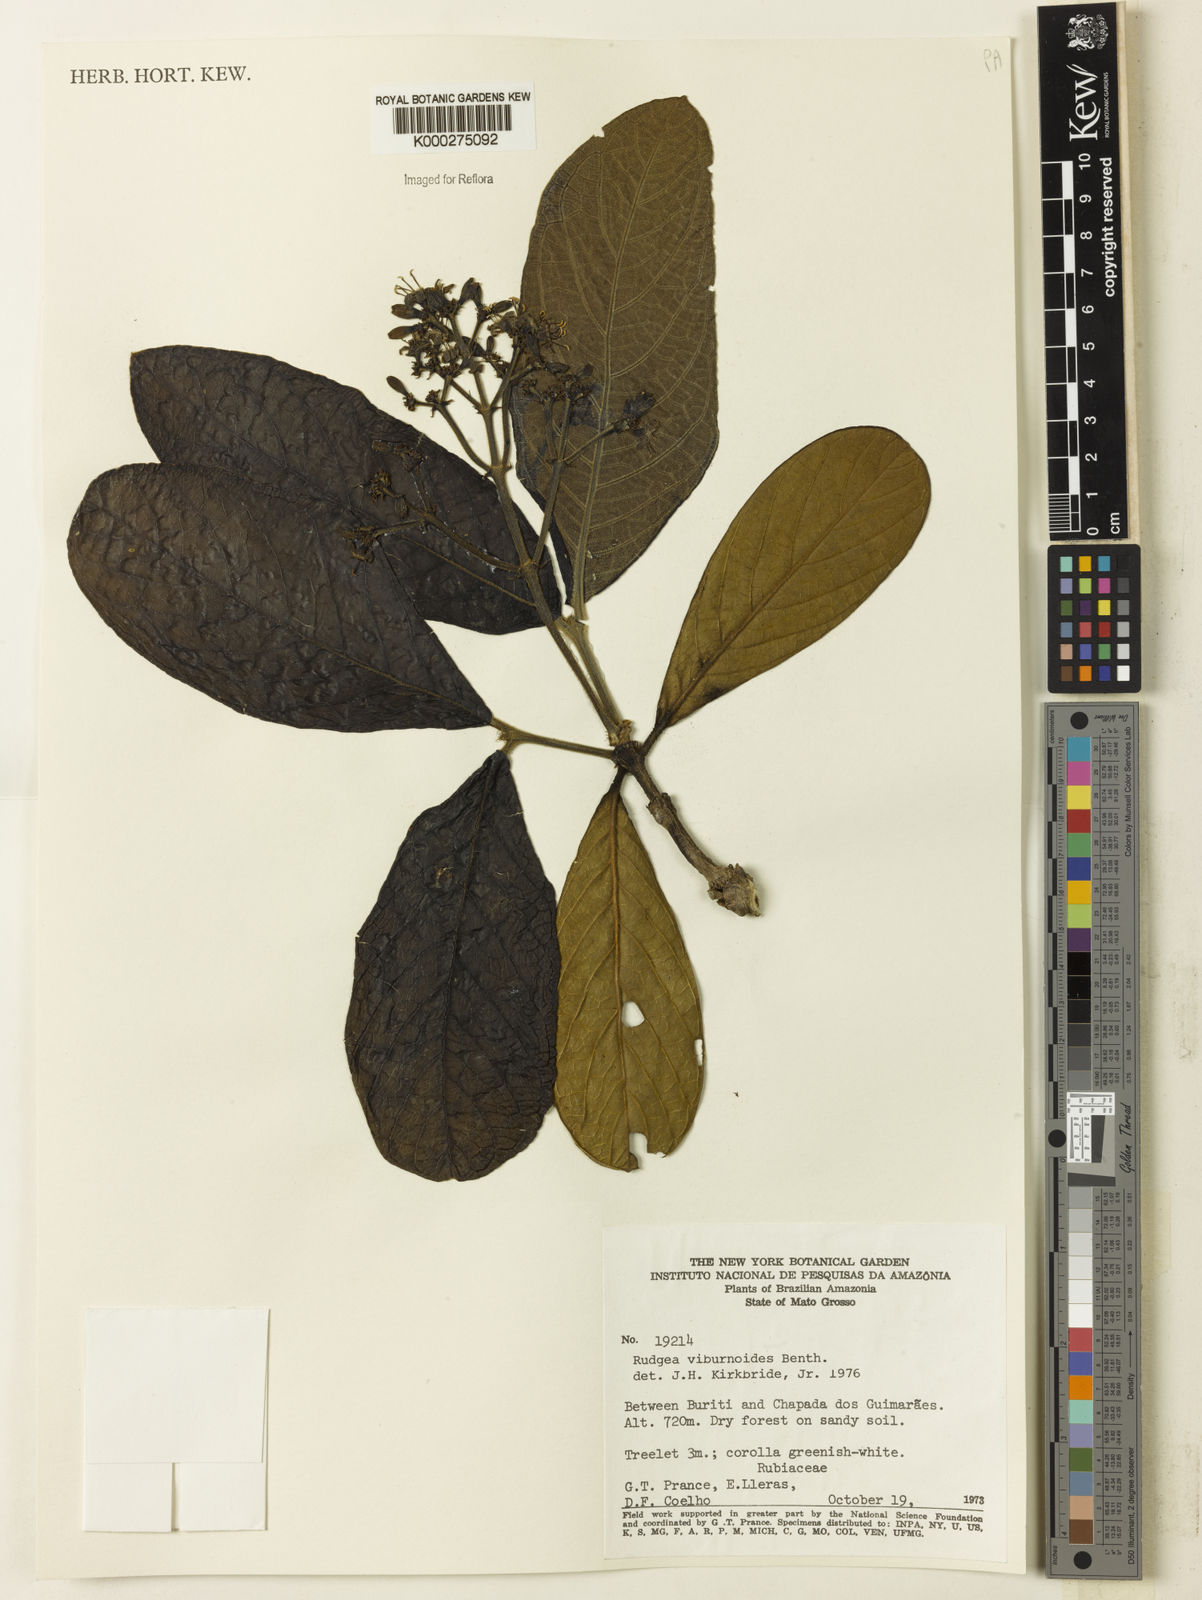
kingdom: Plantae
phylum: Tracheophyta
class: Magnoliopsida
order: Gentianales
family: Rubiaceae
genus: Rudgea
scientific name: Rudgea viburnoides
